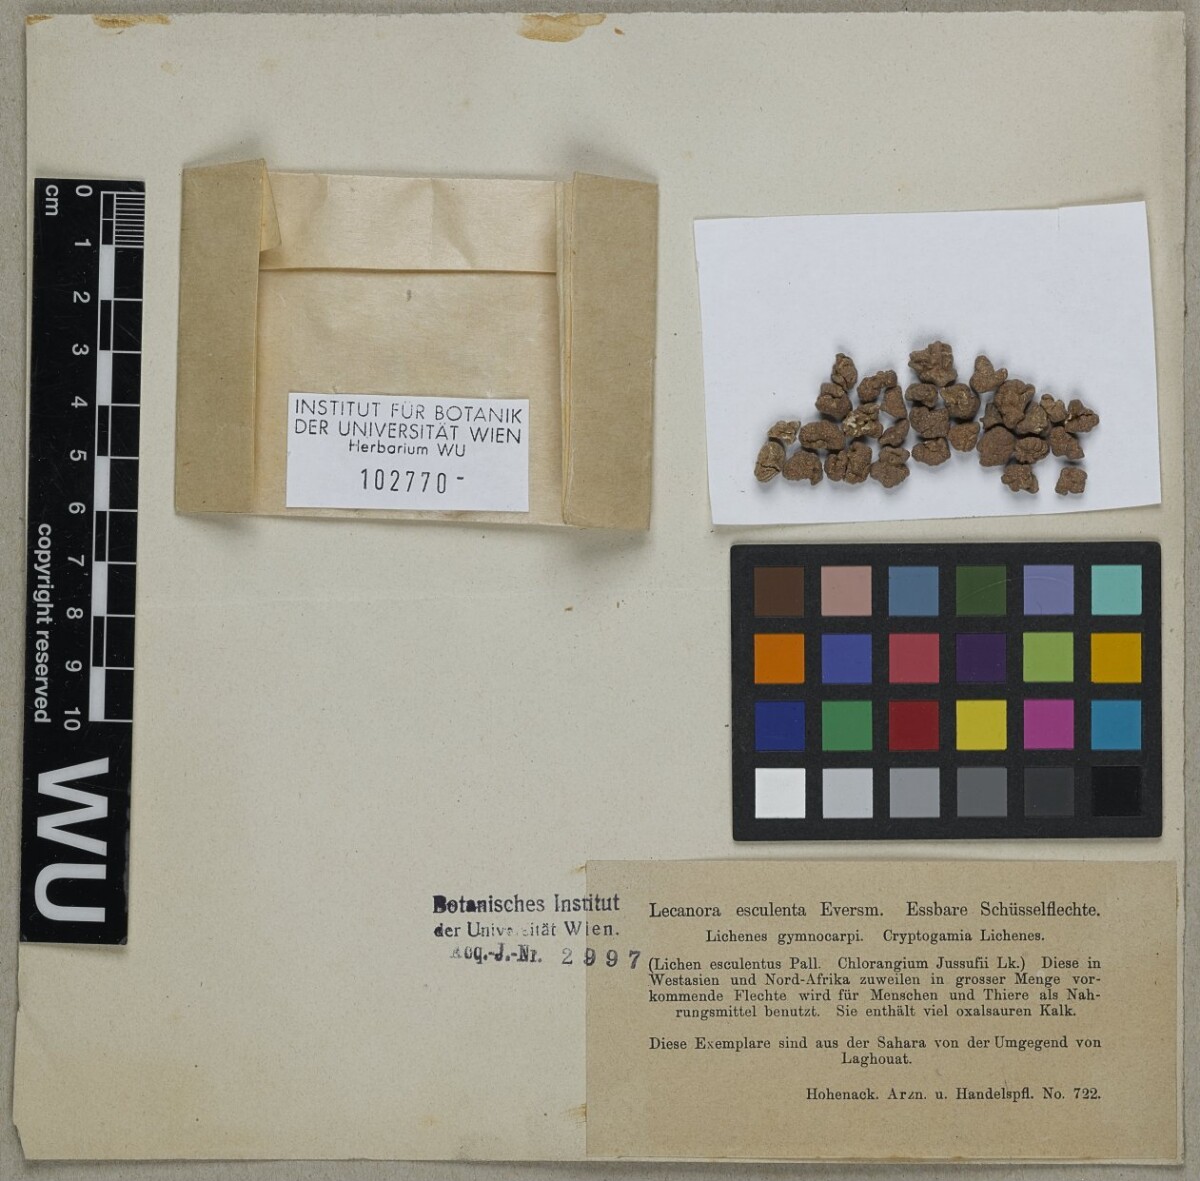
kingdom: Fungi
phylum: Ascomycota
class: Lecanoromycetes
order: Pertusariales
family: Megasporaceae
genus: Circinaria
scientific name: Circinaria esculenta
